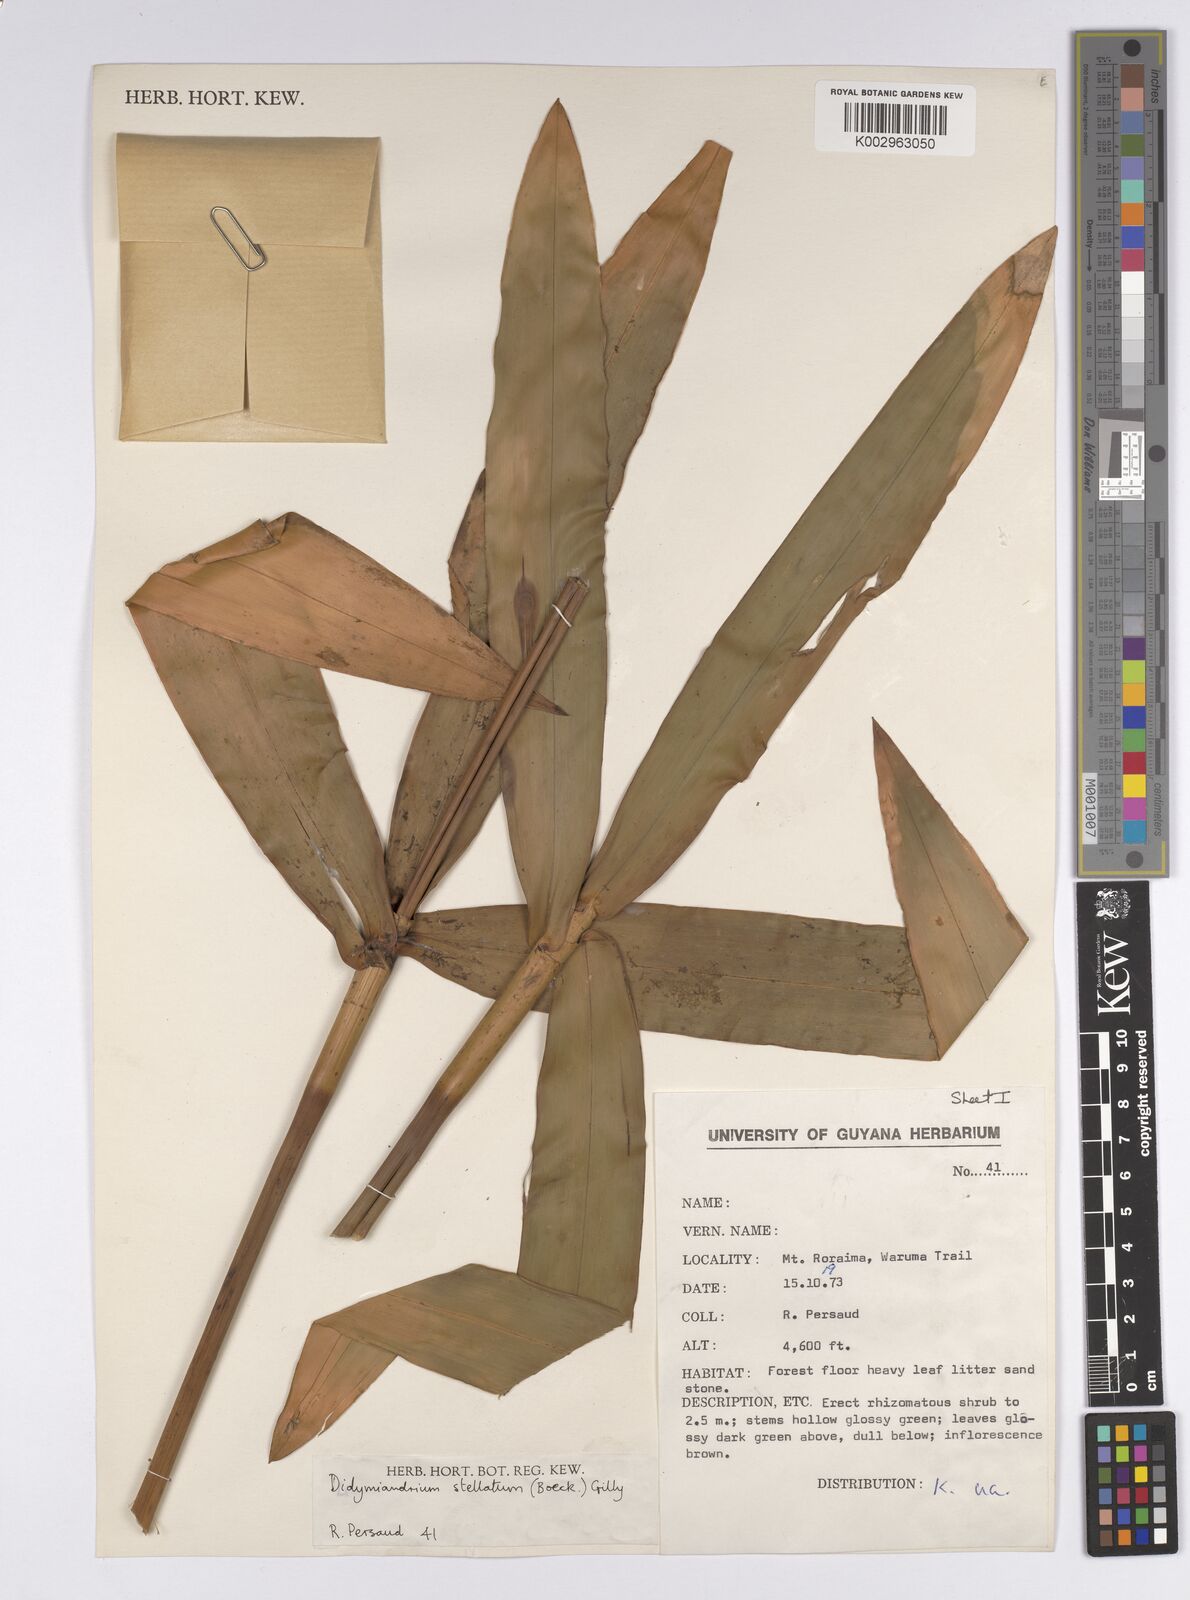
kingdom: Plantae
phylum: Tracheophyta
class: Liliopsida
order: Poales
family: Cyperaceae
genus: Didymiandrum
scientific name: Didymiandrum stellatum
